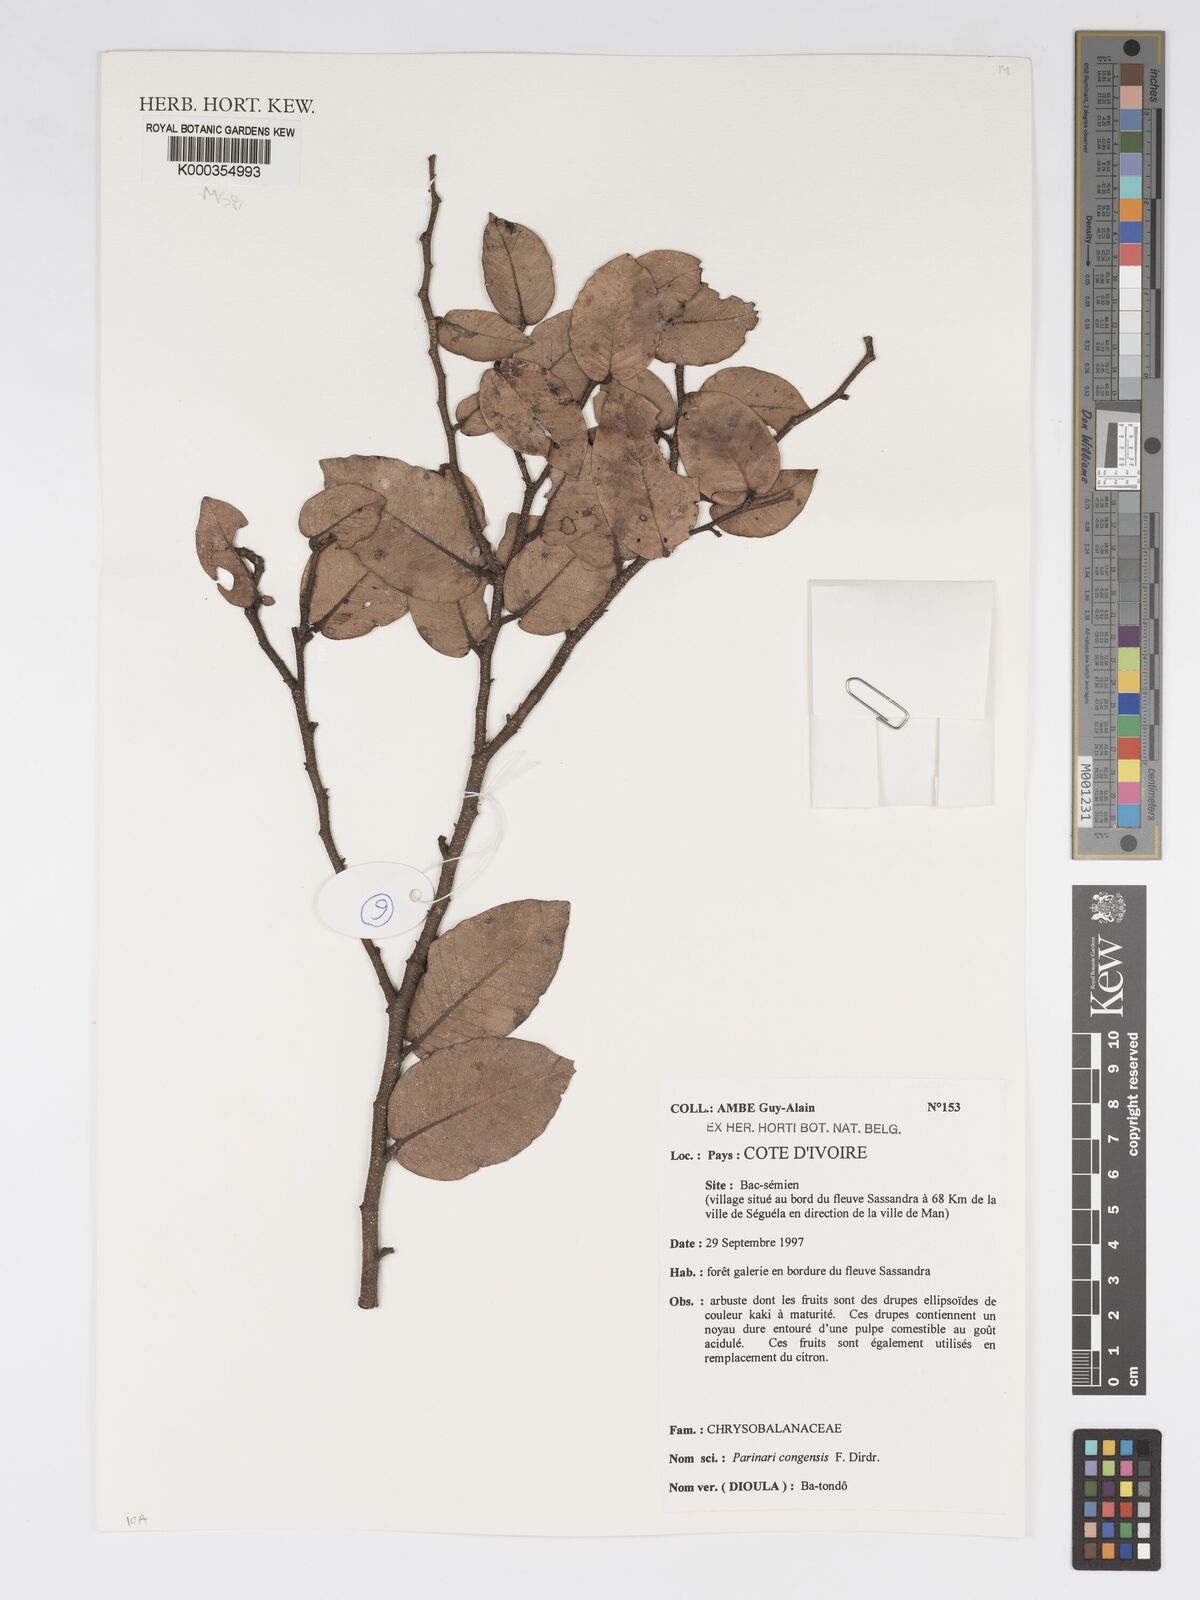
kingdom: Plantae
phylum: Tracheophyta
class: Magnoliopsida
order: Malpighiales
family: Chrysobalanaceae
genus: Parinari
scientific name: Parinari congensis
